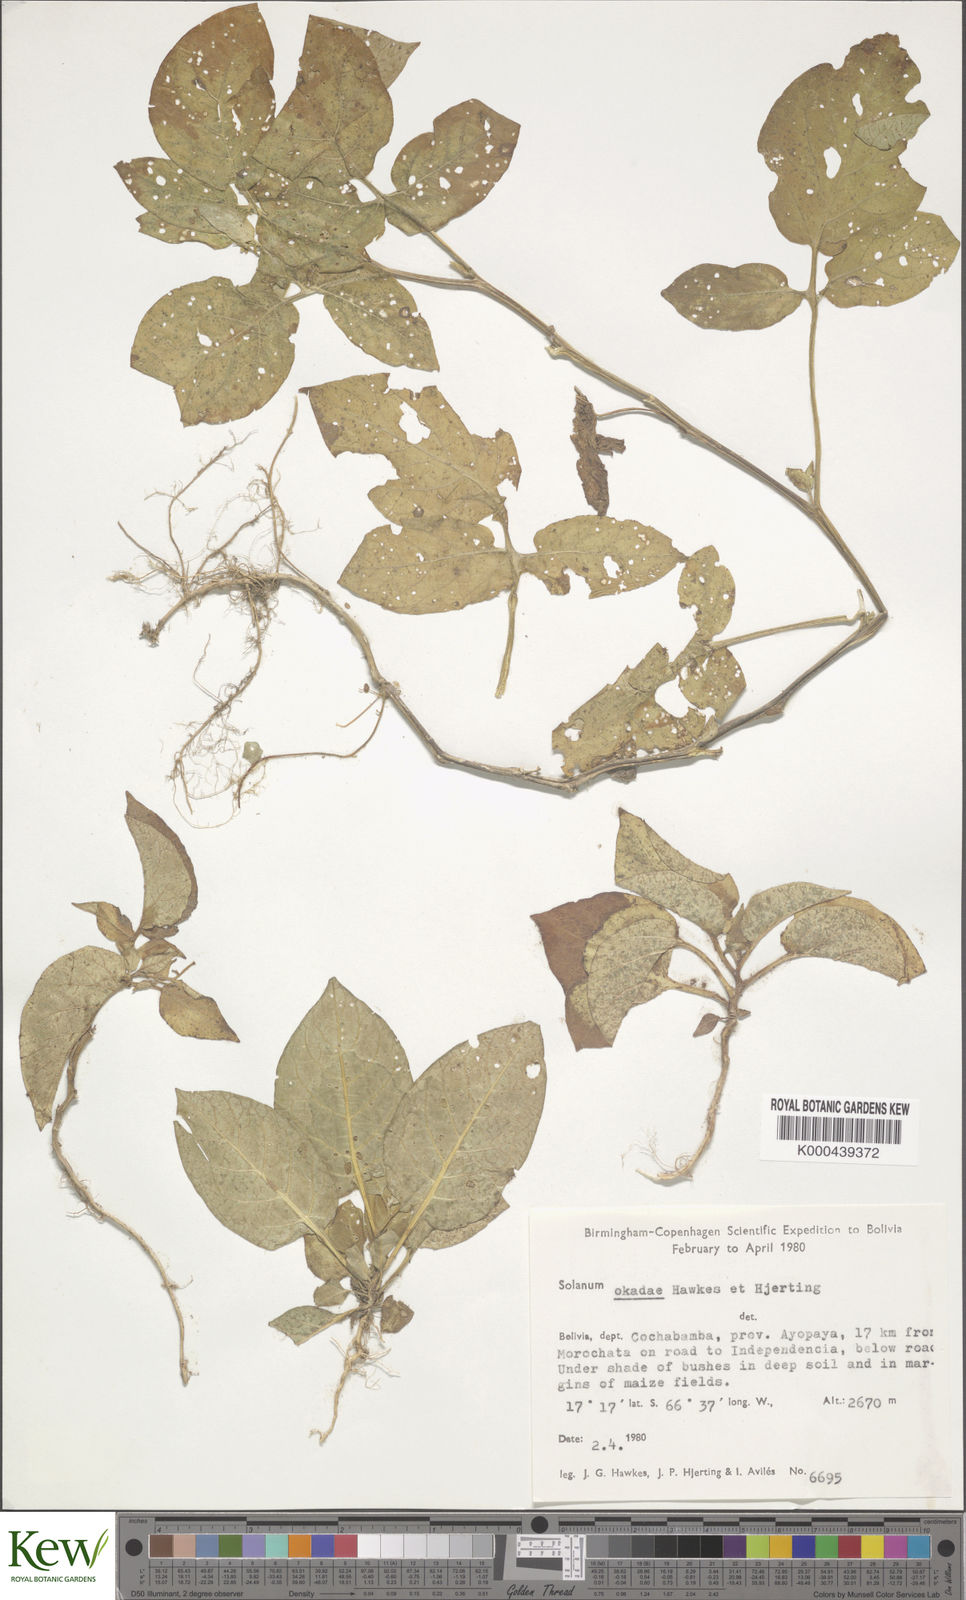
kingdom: Plantae
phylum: Tracheophyta
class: Magnoliopsida
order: Solanales
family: Solanaceae
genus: Solanum
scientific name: Solanum okadae
